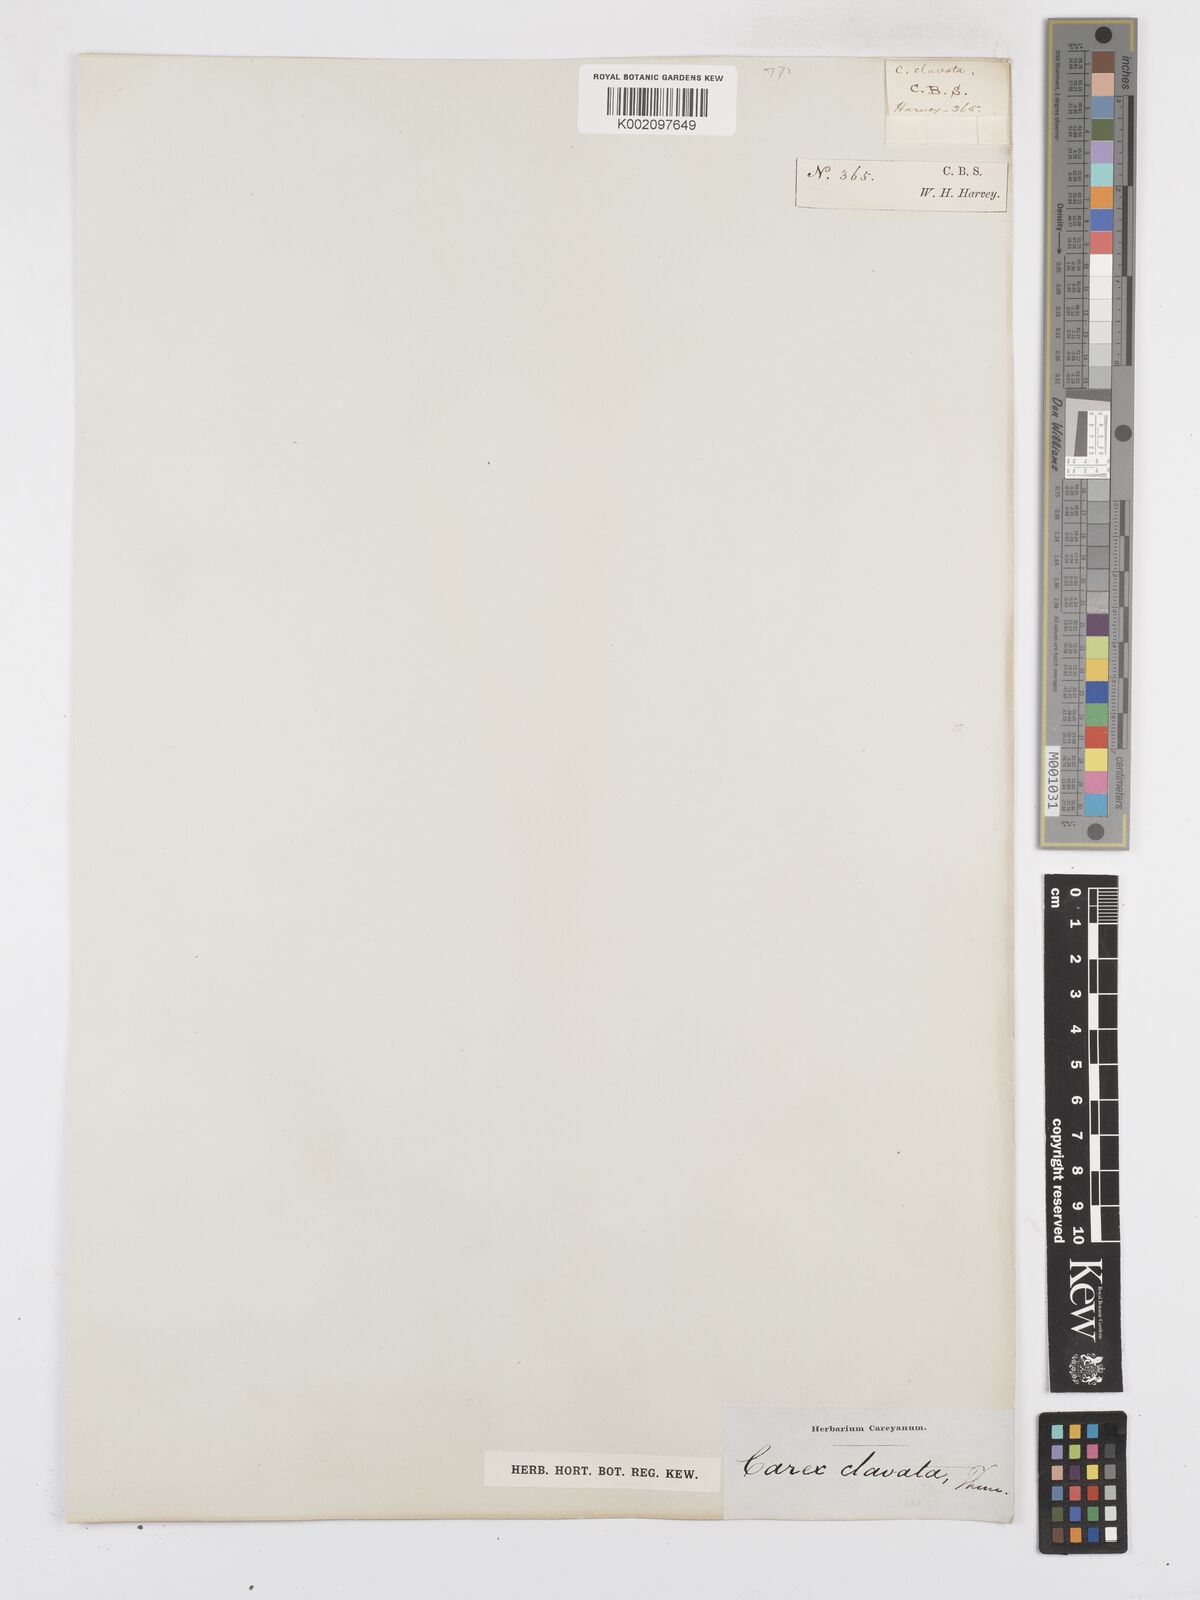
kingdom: Plantae
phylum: Tracheophyta
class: Liliopsida
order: Poales
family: Cyperaceae
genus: Carex
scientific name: Carex clavata
